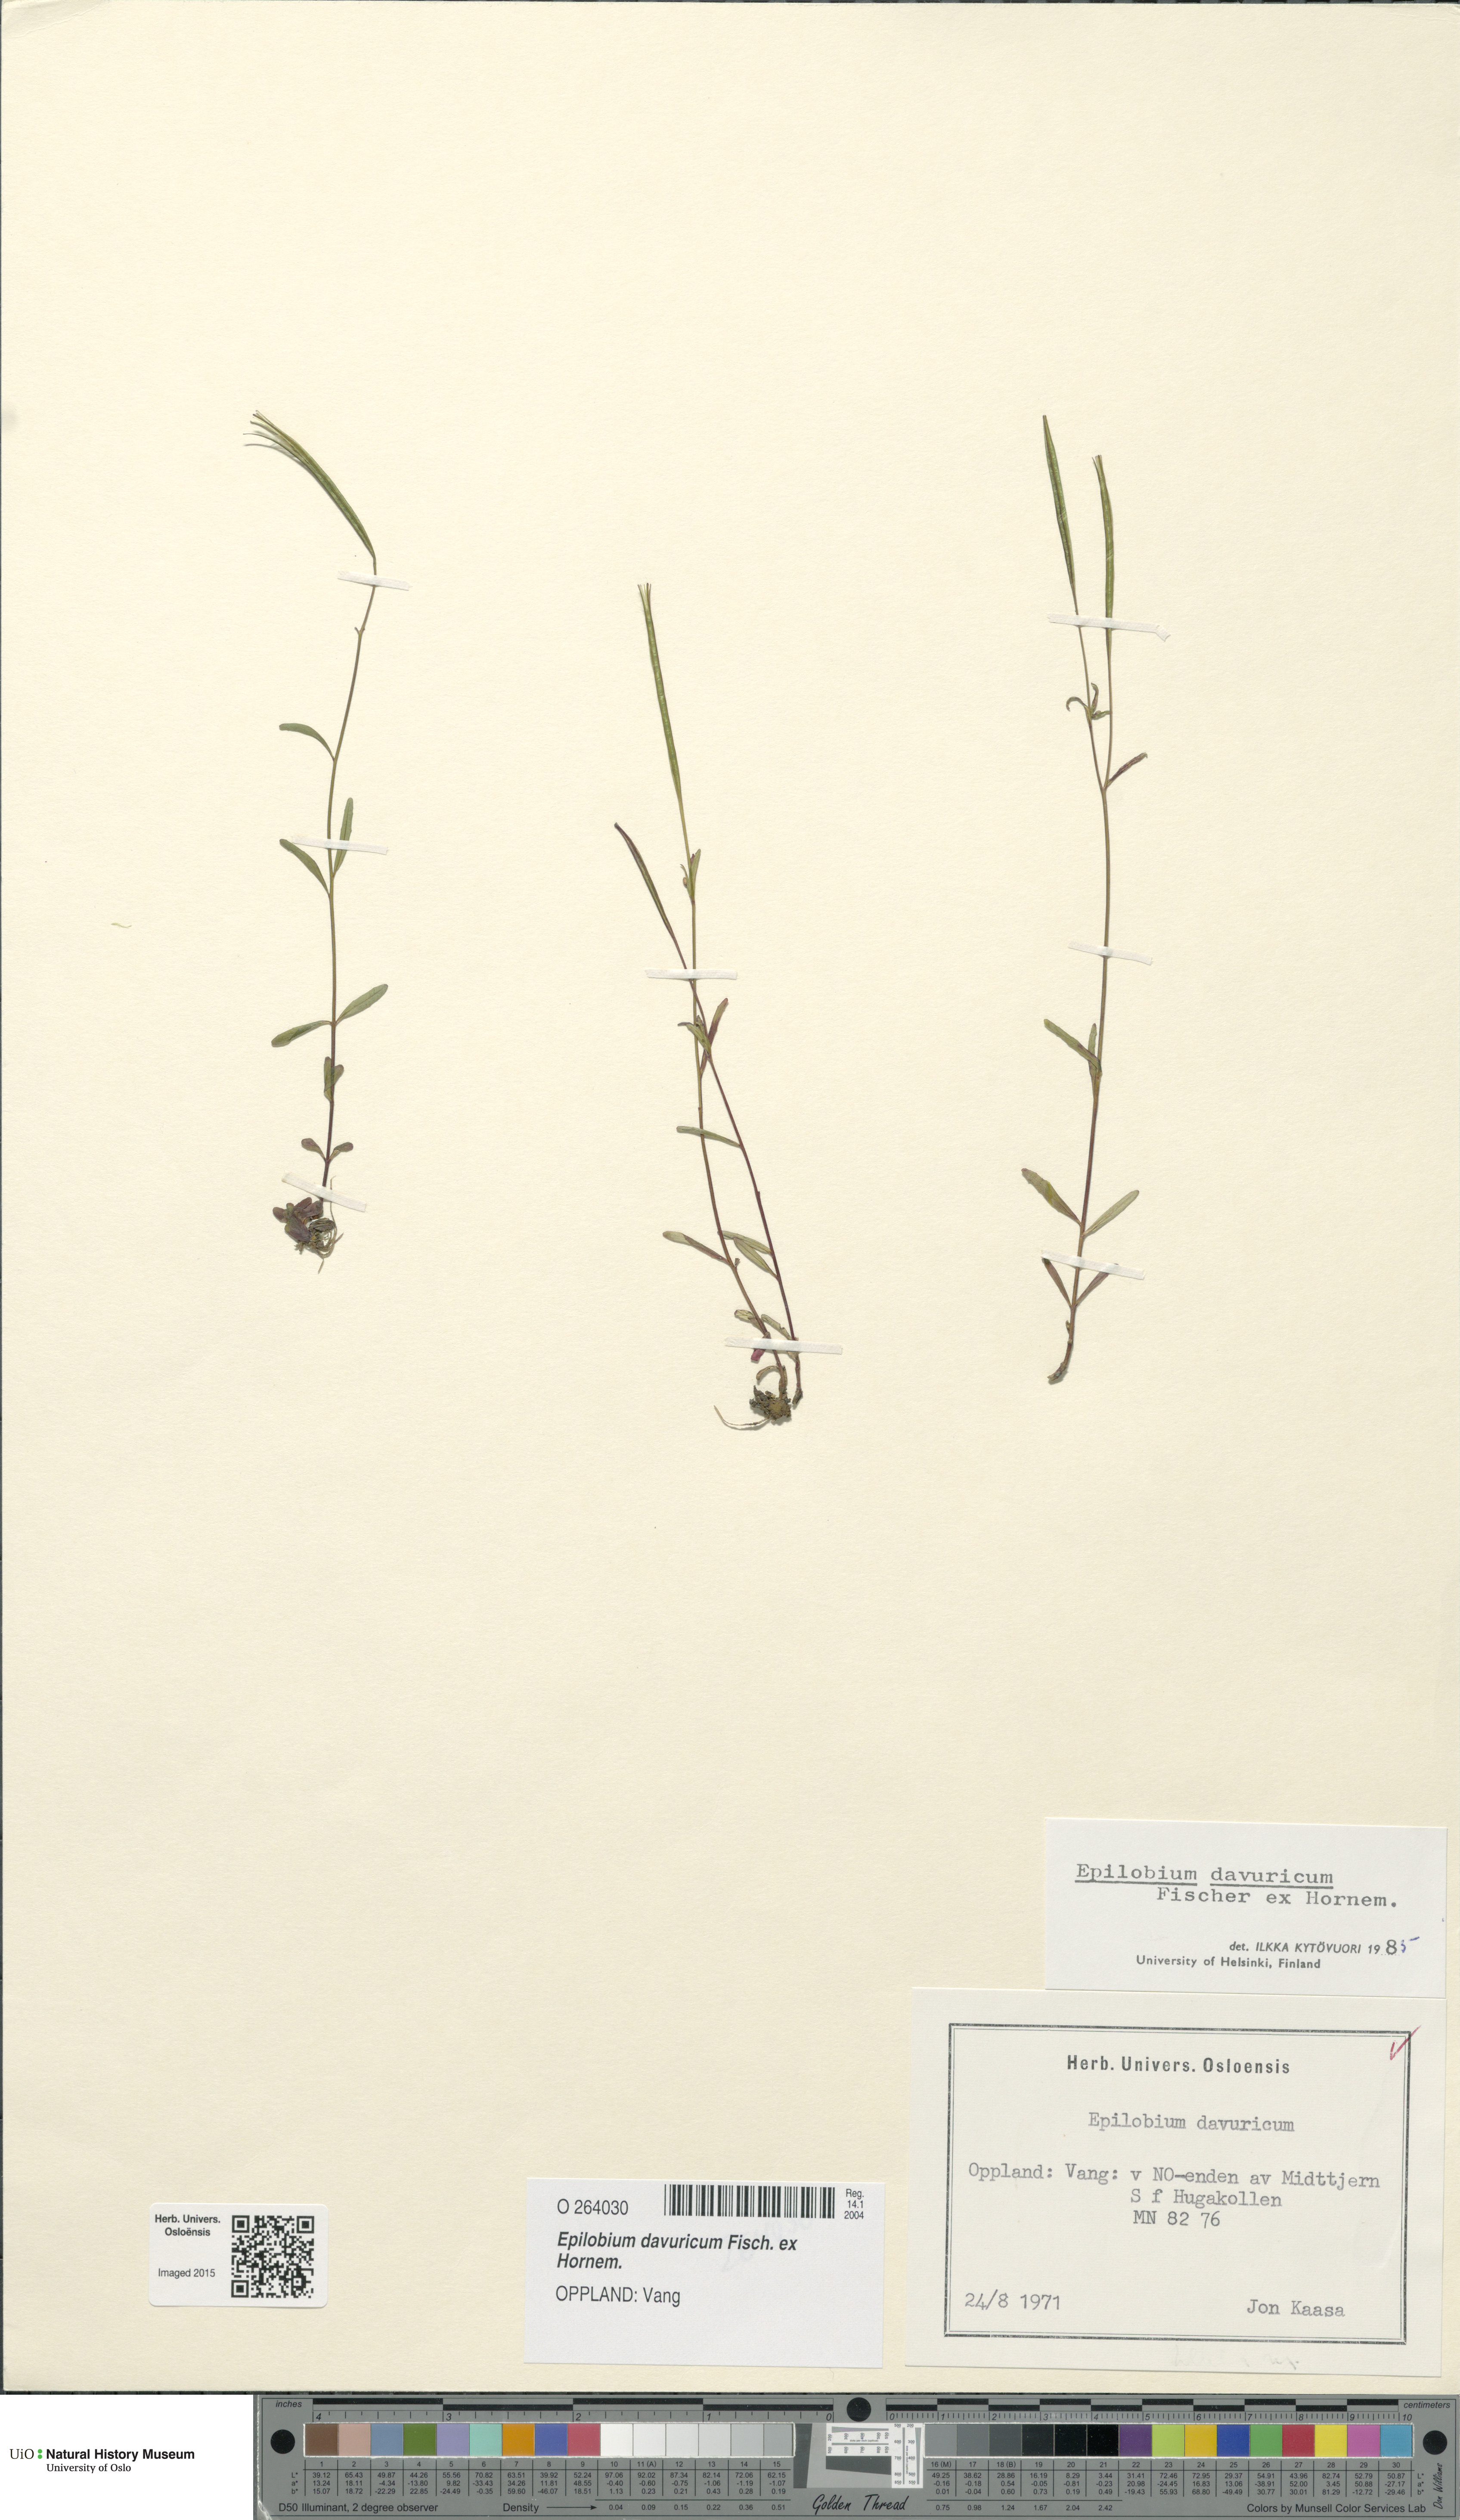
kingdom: Plantae
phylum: Tracheophyta
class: Magnoliopsida
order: Myrtales
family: Onagraceae
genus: Epilobium
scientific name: Epilobium davuricum
